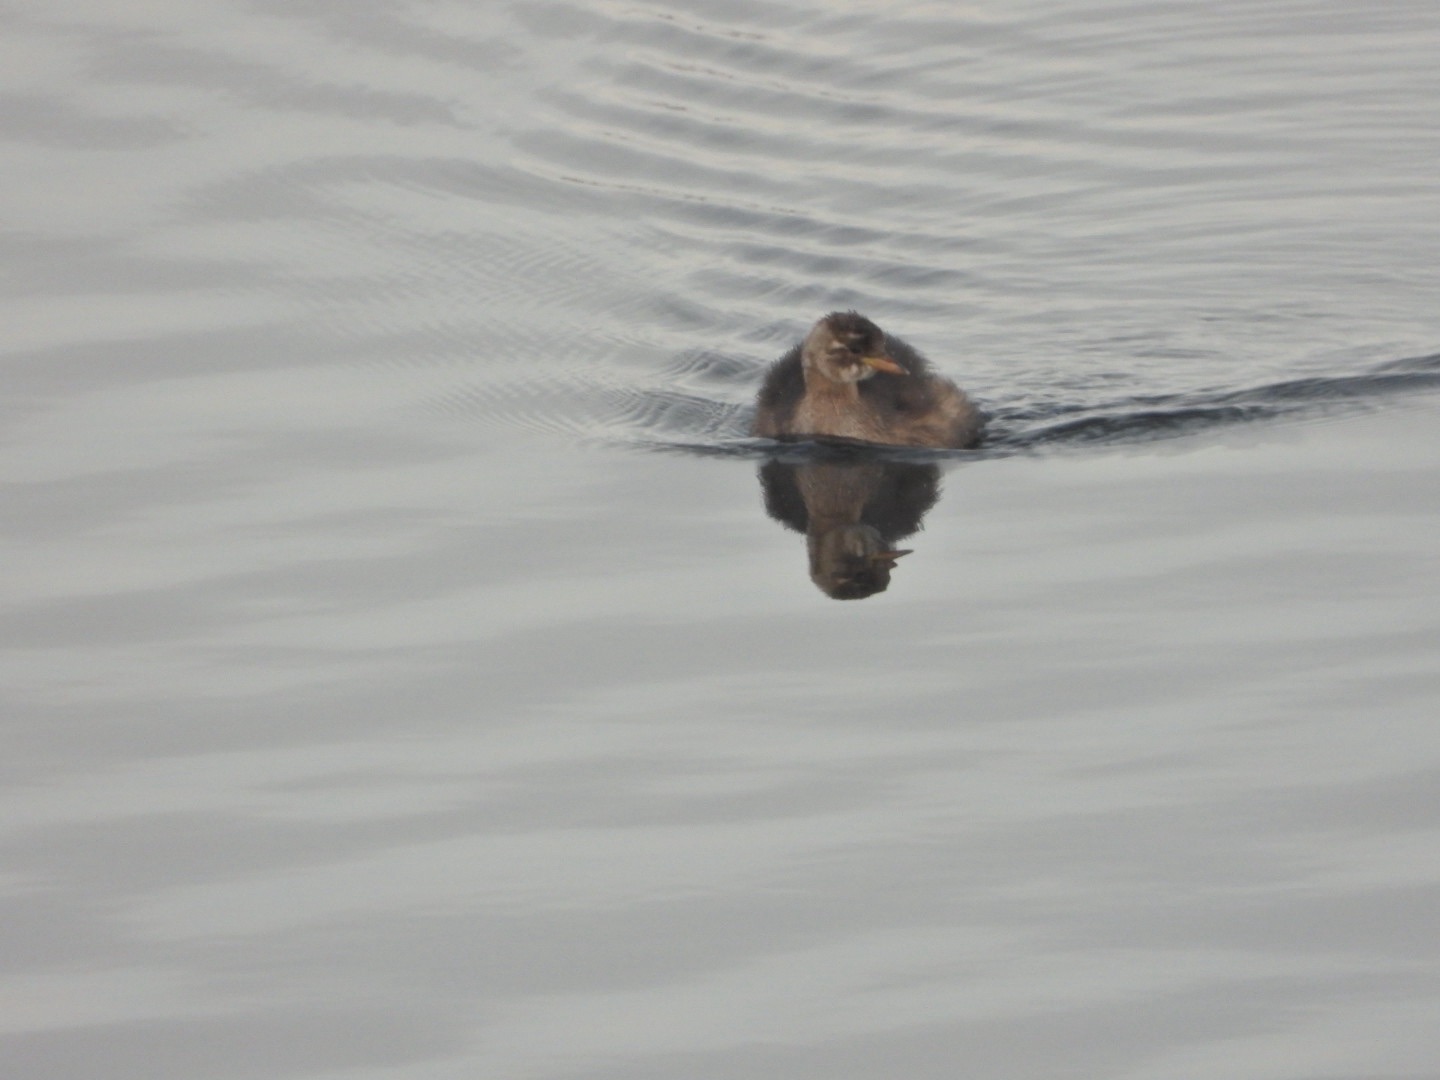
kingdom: Animalia
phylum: Chordata
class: Aves
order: Podicipediformes
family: Podicipedidae
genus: Tachybaptus
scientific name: Tachybaptus ruficollis
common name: Lille lappedykker
